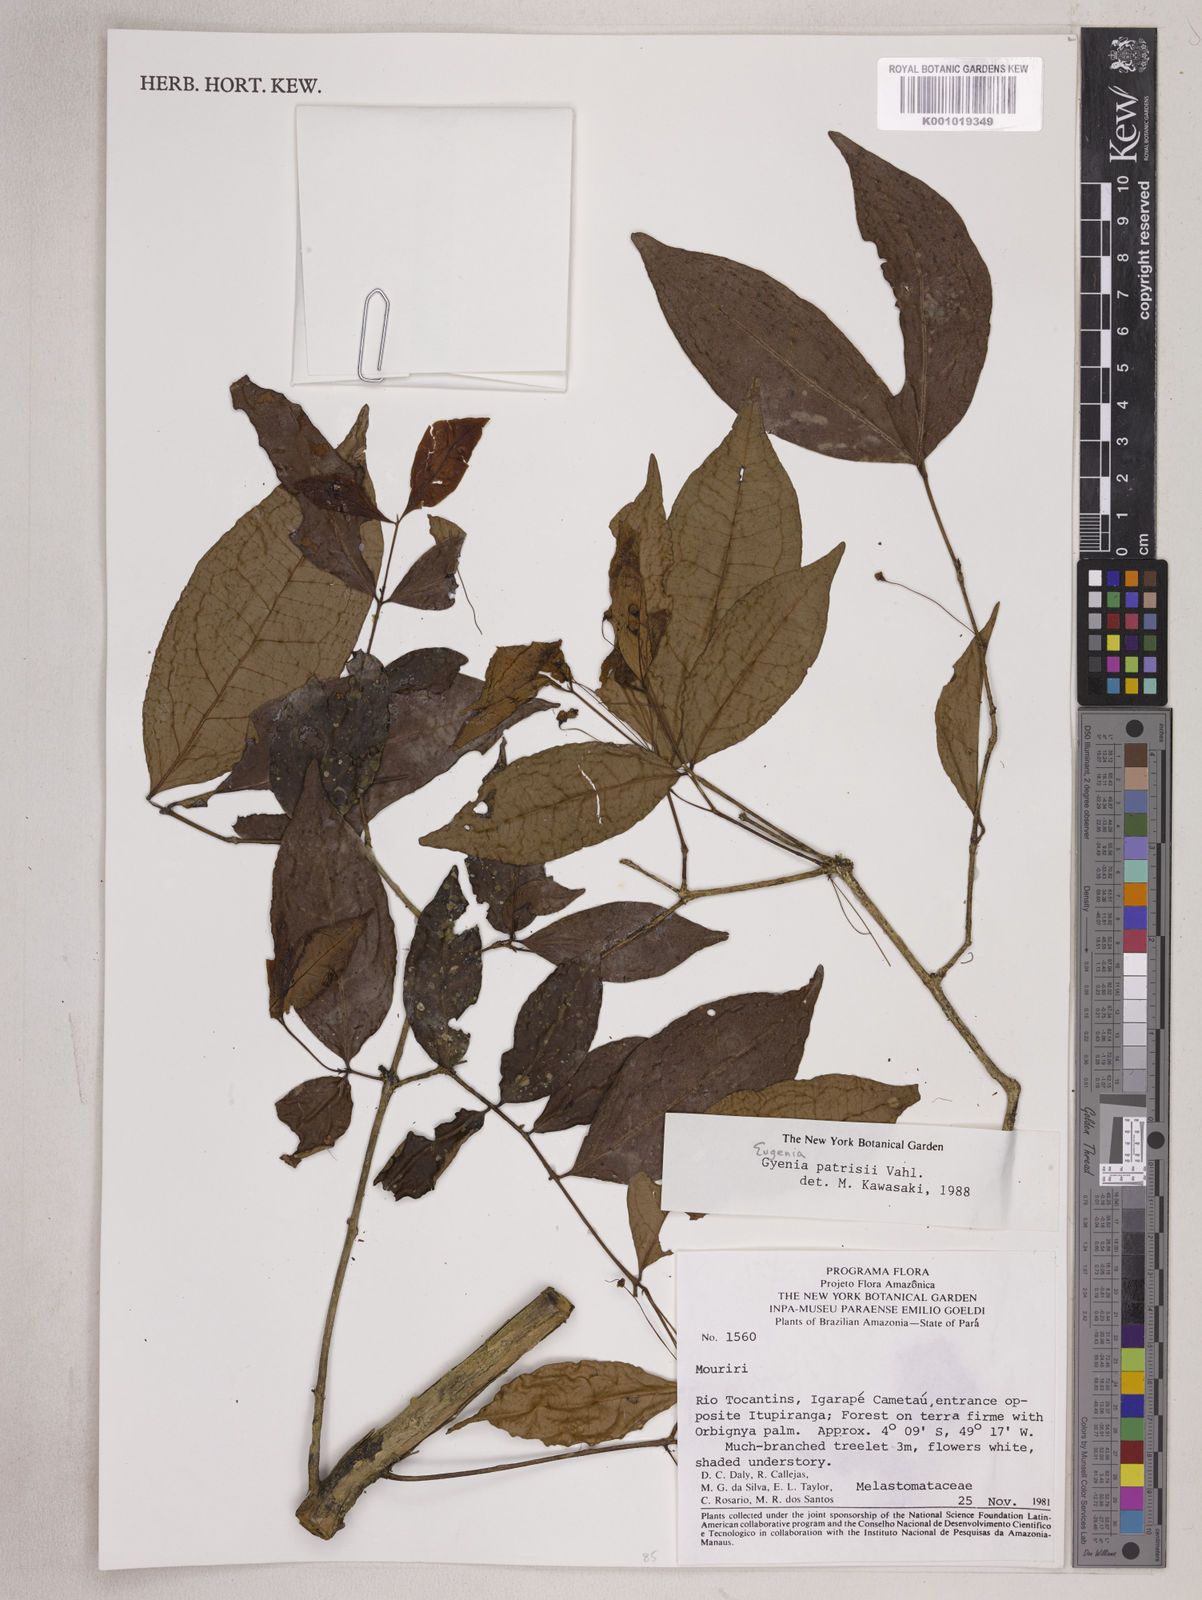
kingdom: Plantae
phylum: Tracheophyta
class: Magnoliopsida
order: Myrtales
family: Myrtaceae
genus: Eugenia
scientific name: Eugenia patrisii
